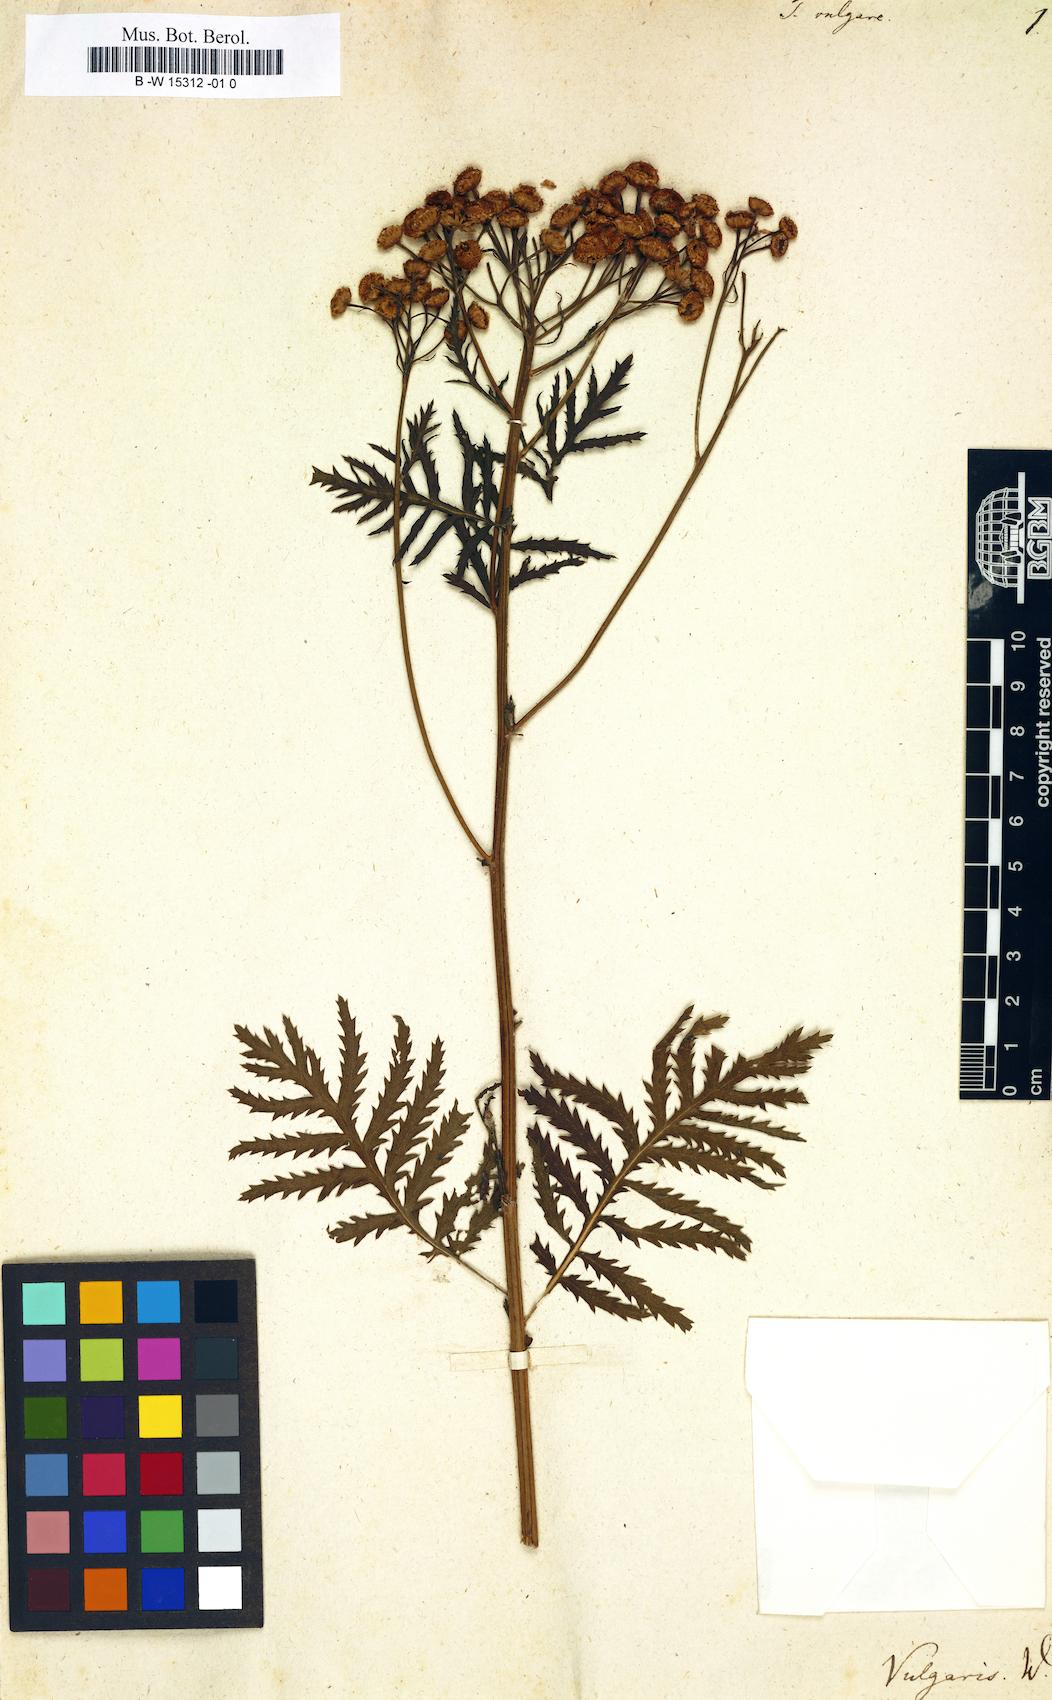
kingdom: Plantae
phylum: Tracheophyta
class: Magnoliopsida
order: Asterales
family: Asteraceae
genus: Tanacetum
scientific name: Tanacetum vulgare
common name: Common tansy
